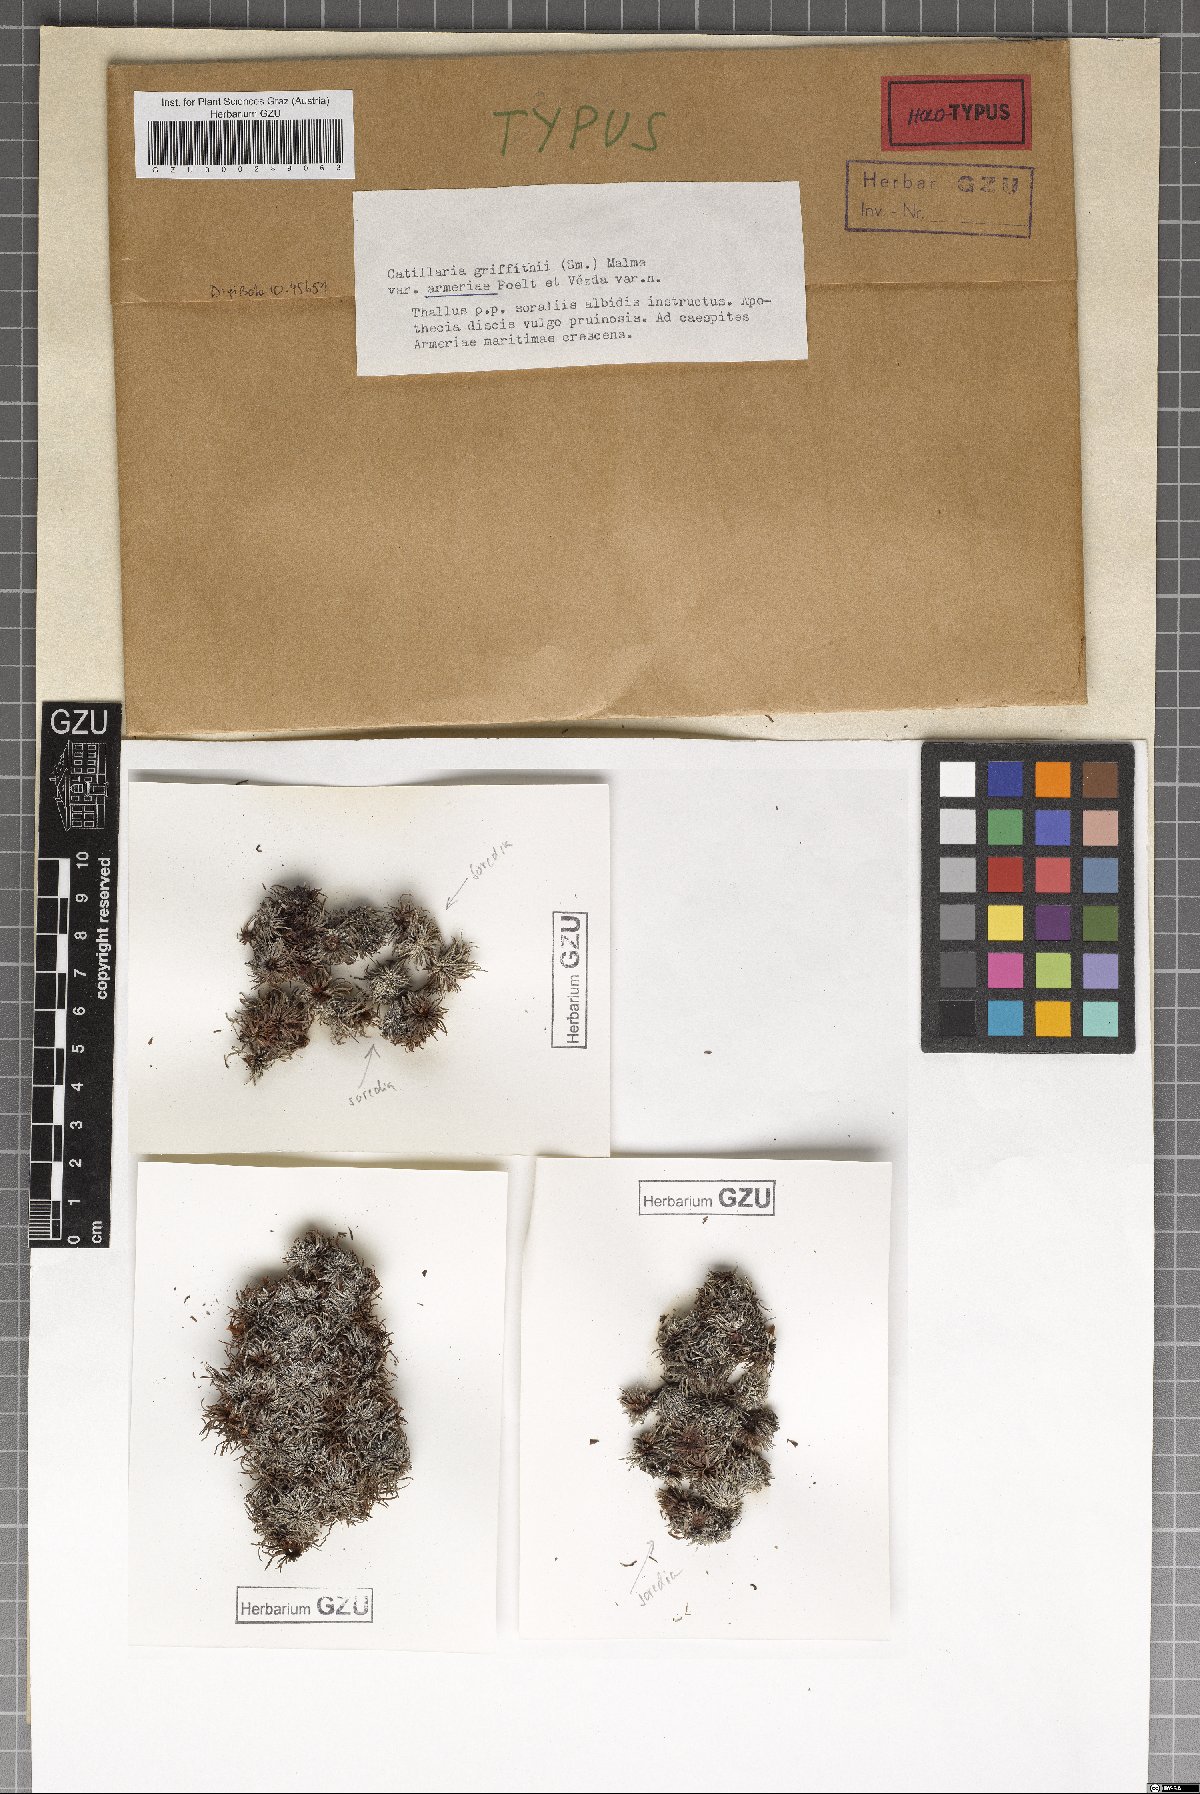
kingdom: Fungi
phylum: Ascomycota
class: Lecanoromycetes
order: Lecanorales
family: Ramalinaceae
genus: Cliostomum
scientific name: Cliostomum griffithii
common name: Multicolored dot lichen
